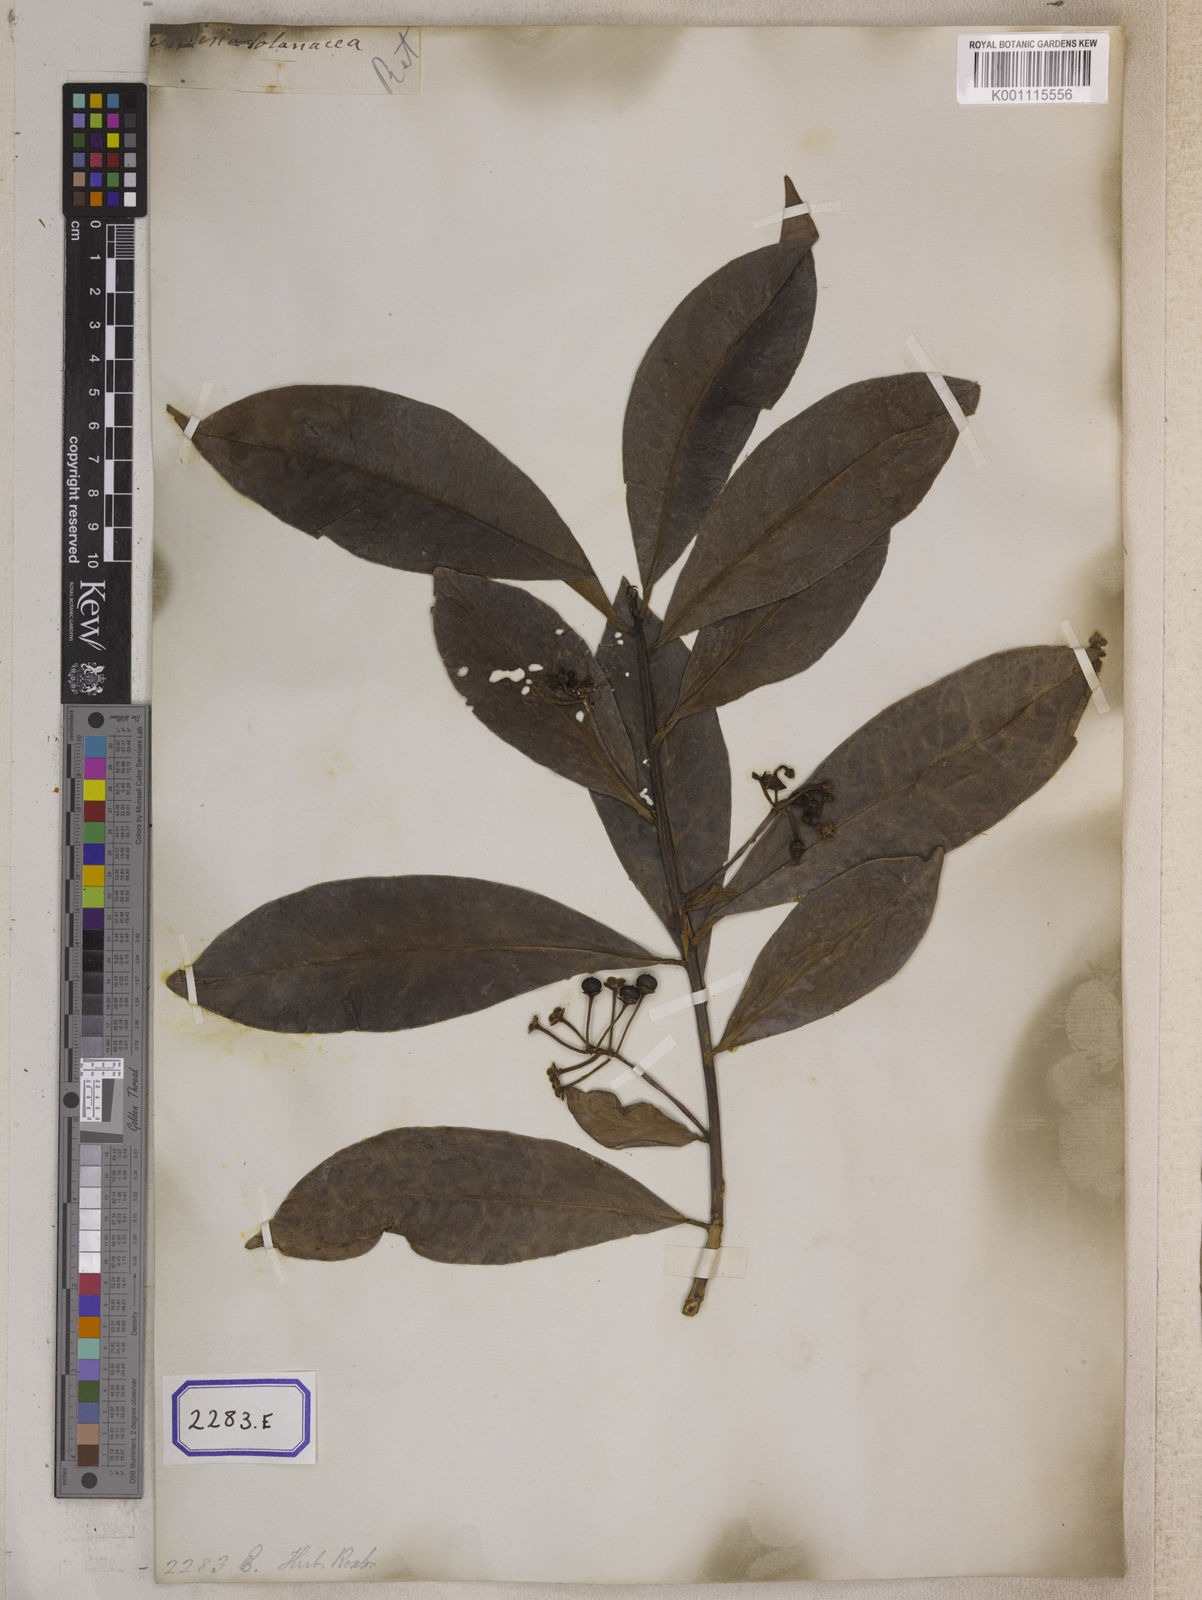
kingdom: Plantae
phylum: Tracheophyta
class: Magnoliopsida
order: Ericales
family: Primulaceae
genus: Ardisia
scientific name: Ardisia humilis
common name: Low shoebutton
